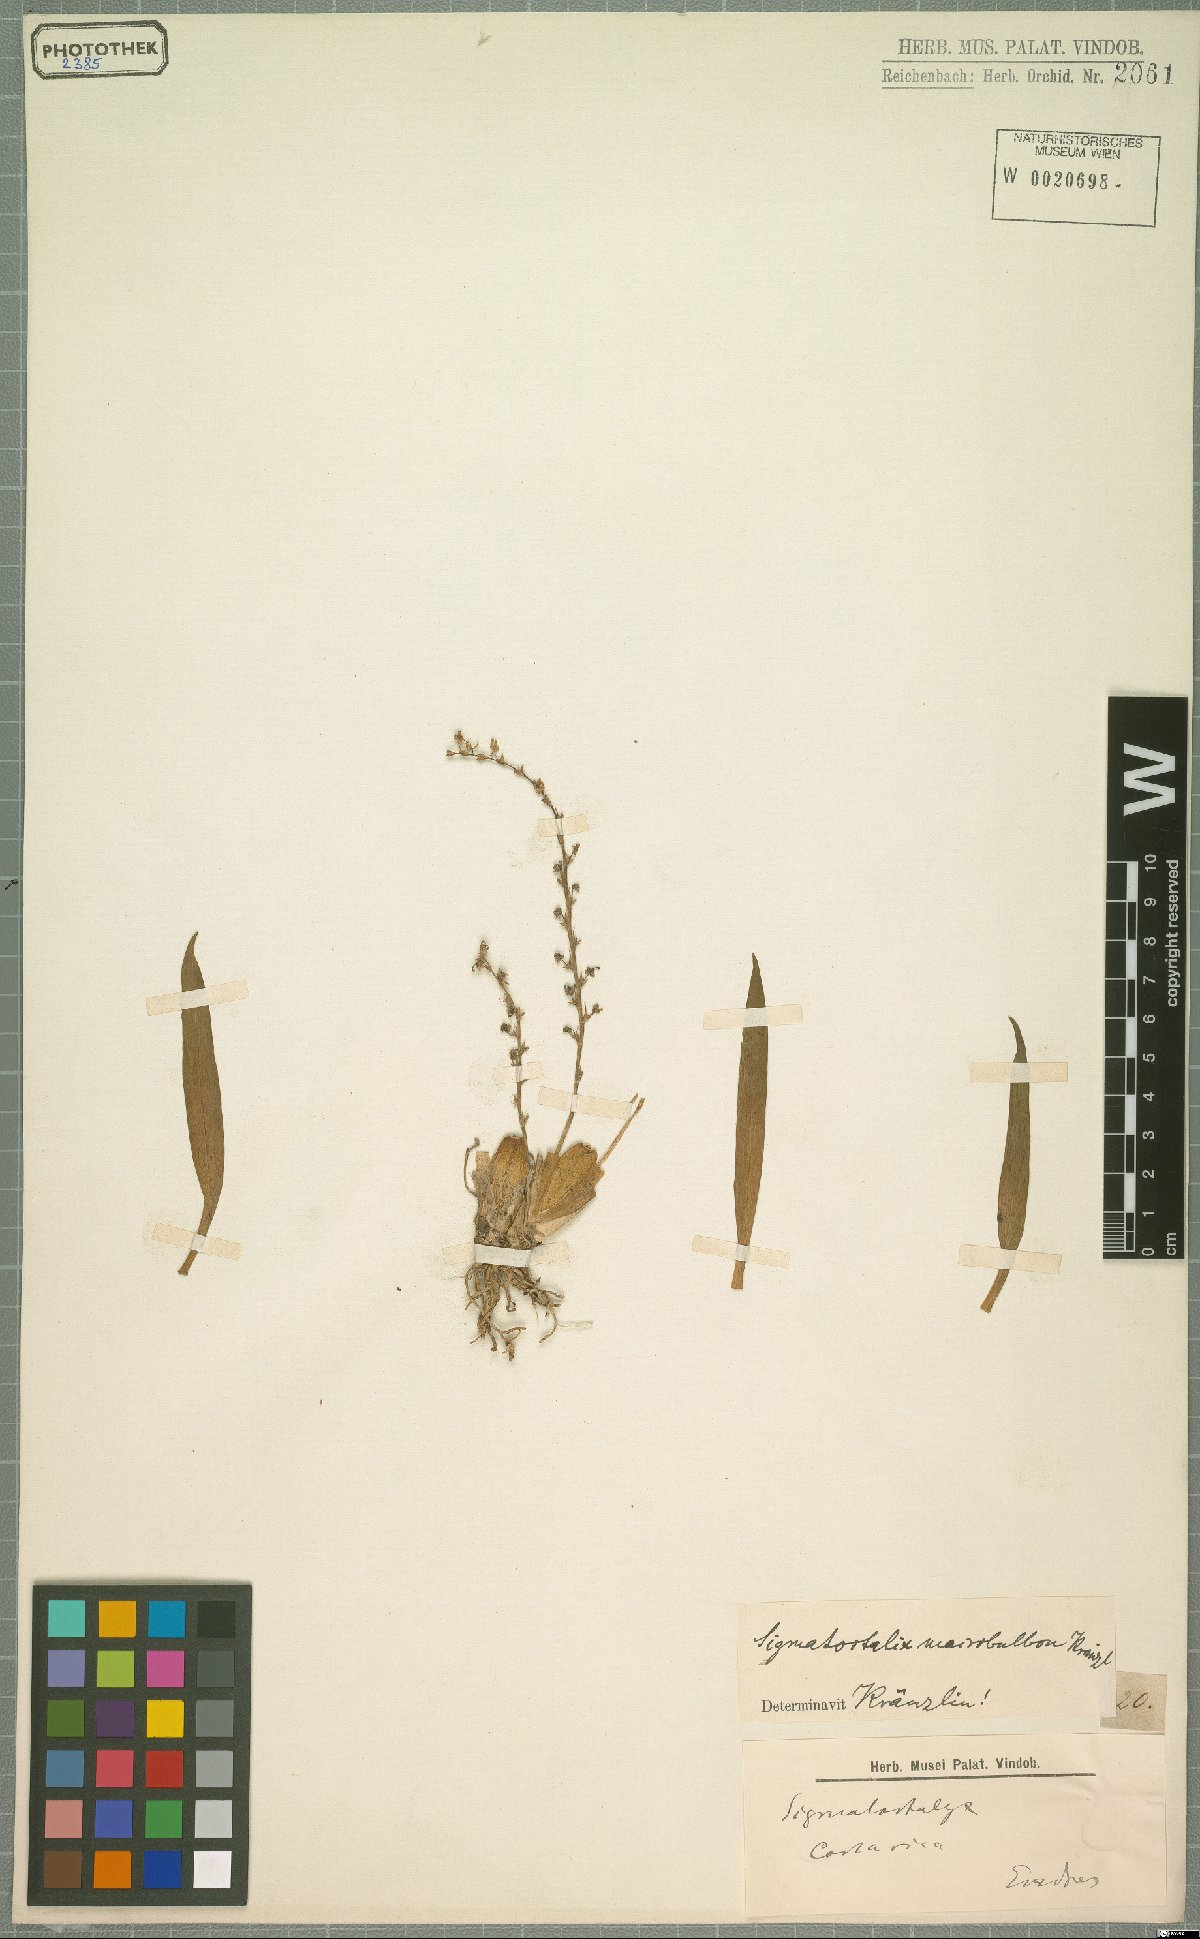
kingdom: Plantae
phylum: Tracheophyta
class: Liliopsida
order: Asparagales
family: Orchidaceae
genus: Oncidium
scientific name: Oncidium macrobulbon
